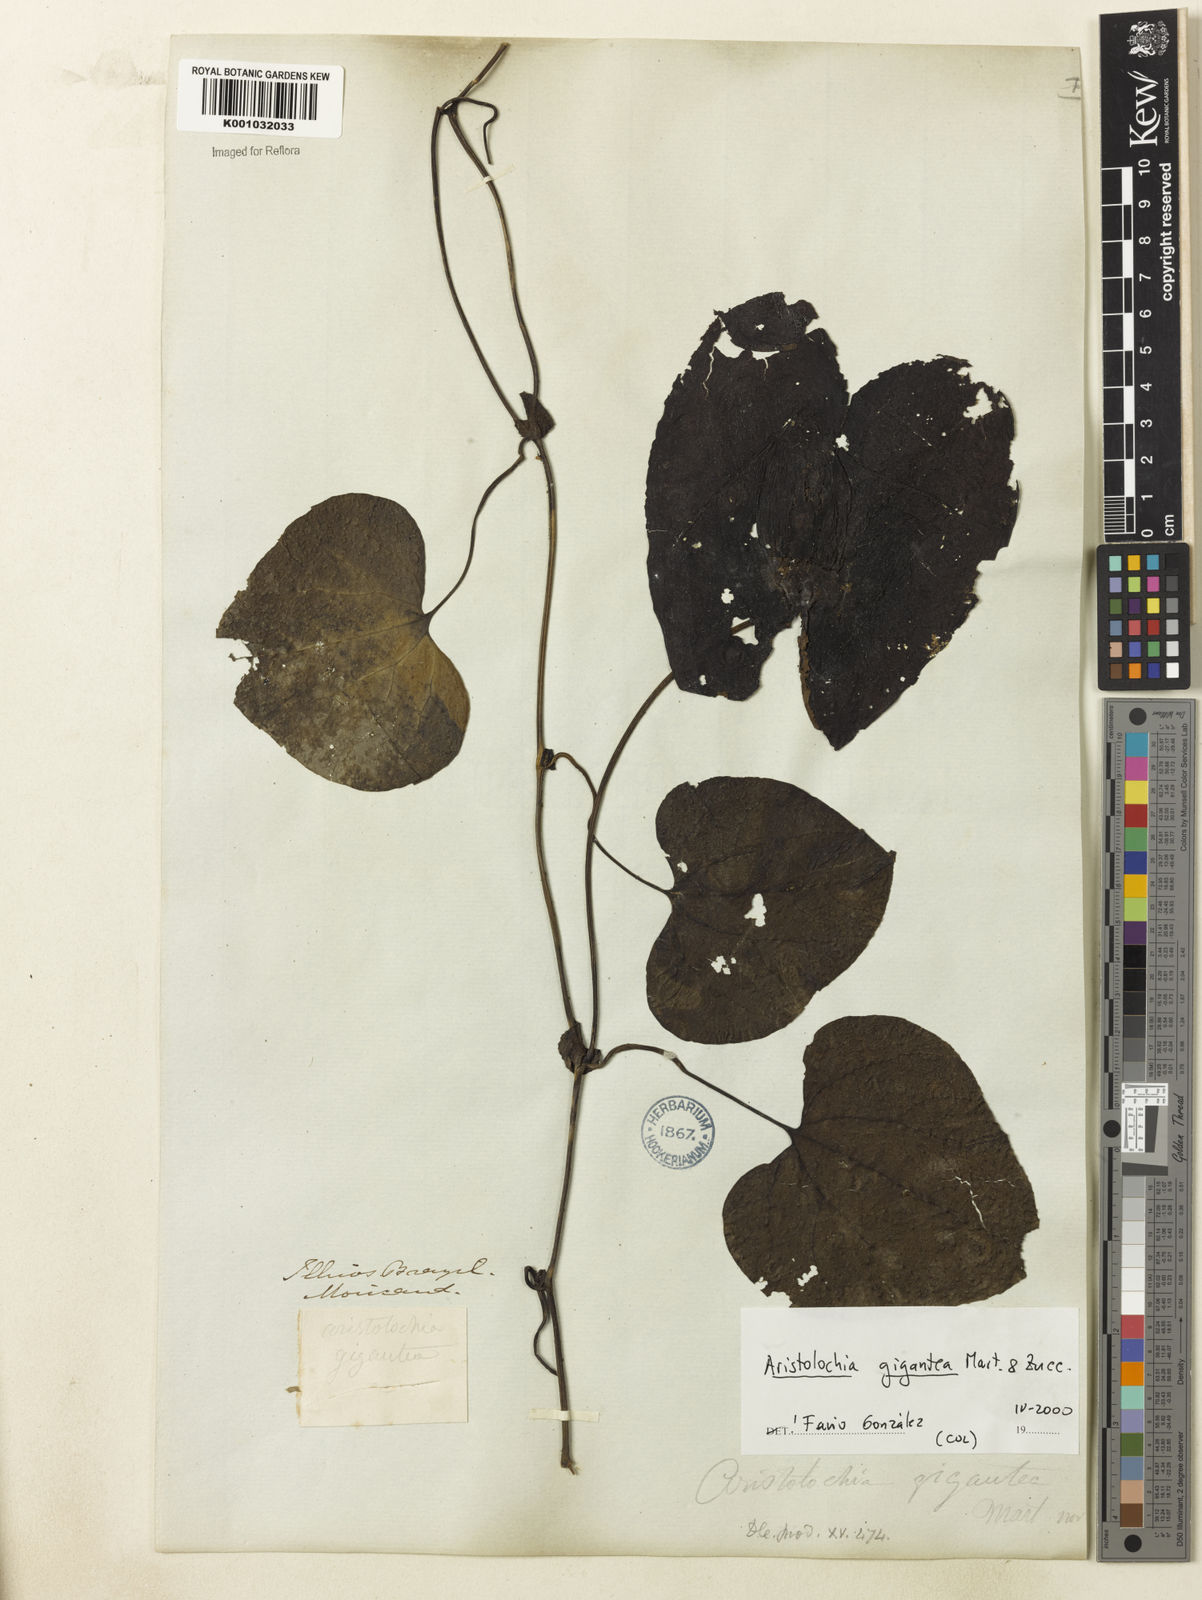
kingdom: Plantae
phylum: Tracheophyta
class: Magnoliopsida
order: Piperales
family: Aristolochiaceae
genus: Aristolochia
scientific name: Aristolochia gigantea
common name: Duckflower
